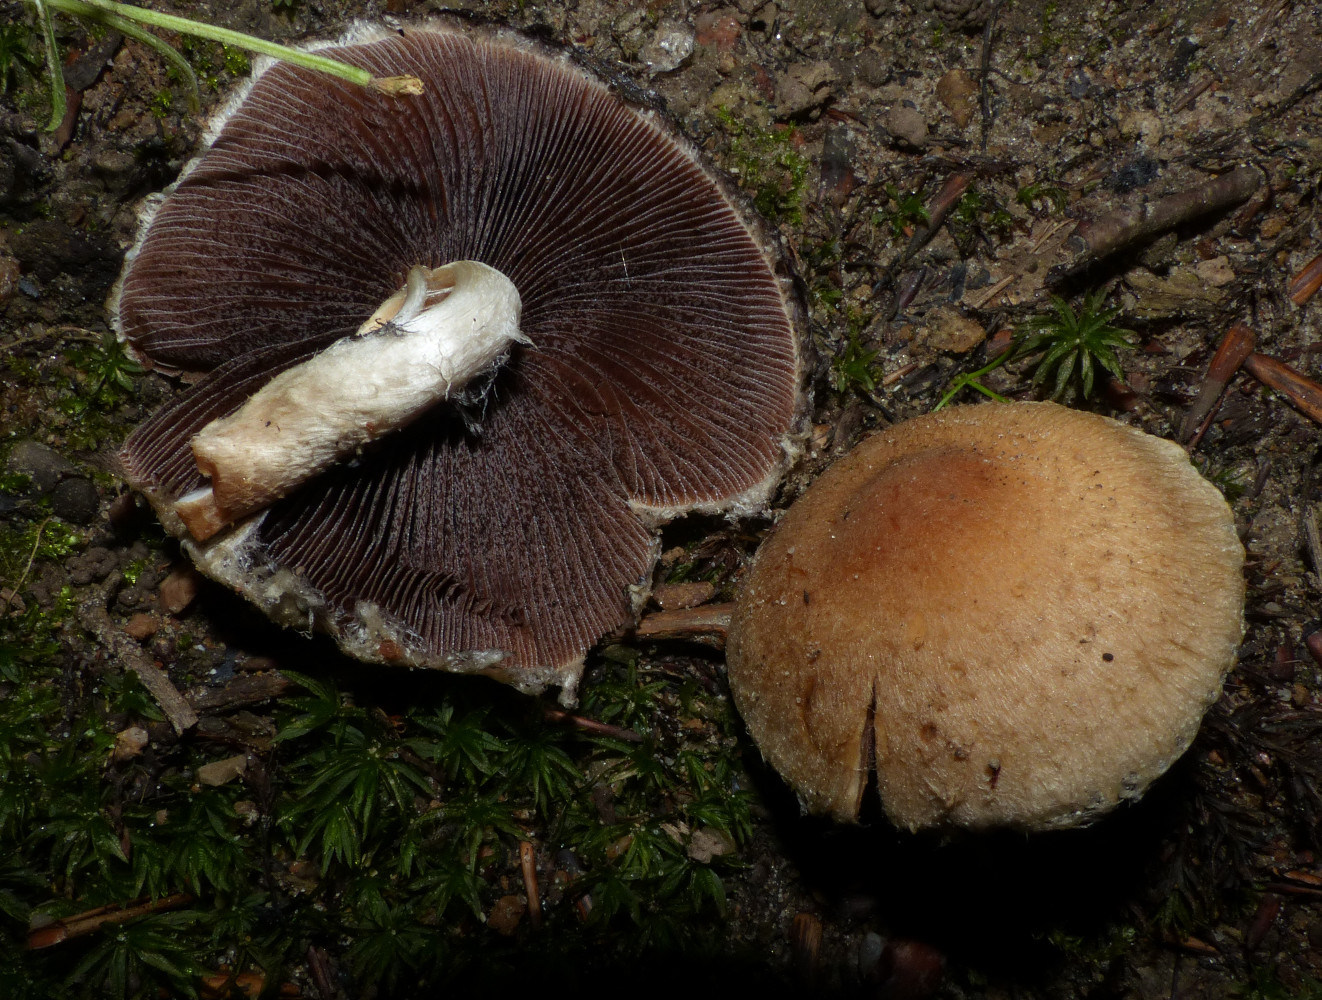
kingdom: Fungi
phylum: Basidiomycota
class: Agaricomycetes
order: Agaricales
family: Psathyrellaceae
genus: Lacrymaria
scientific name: Lacrymaria lacrymabunda
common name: grædende mørkhat
